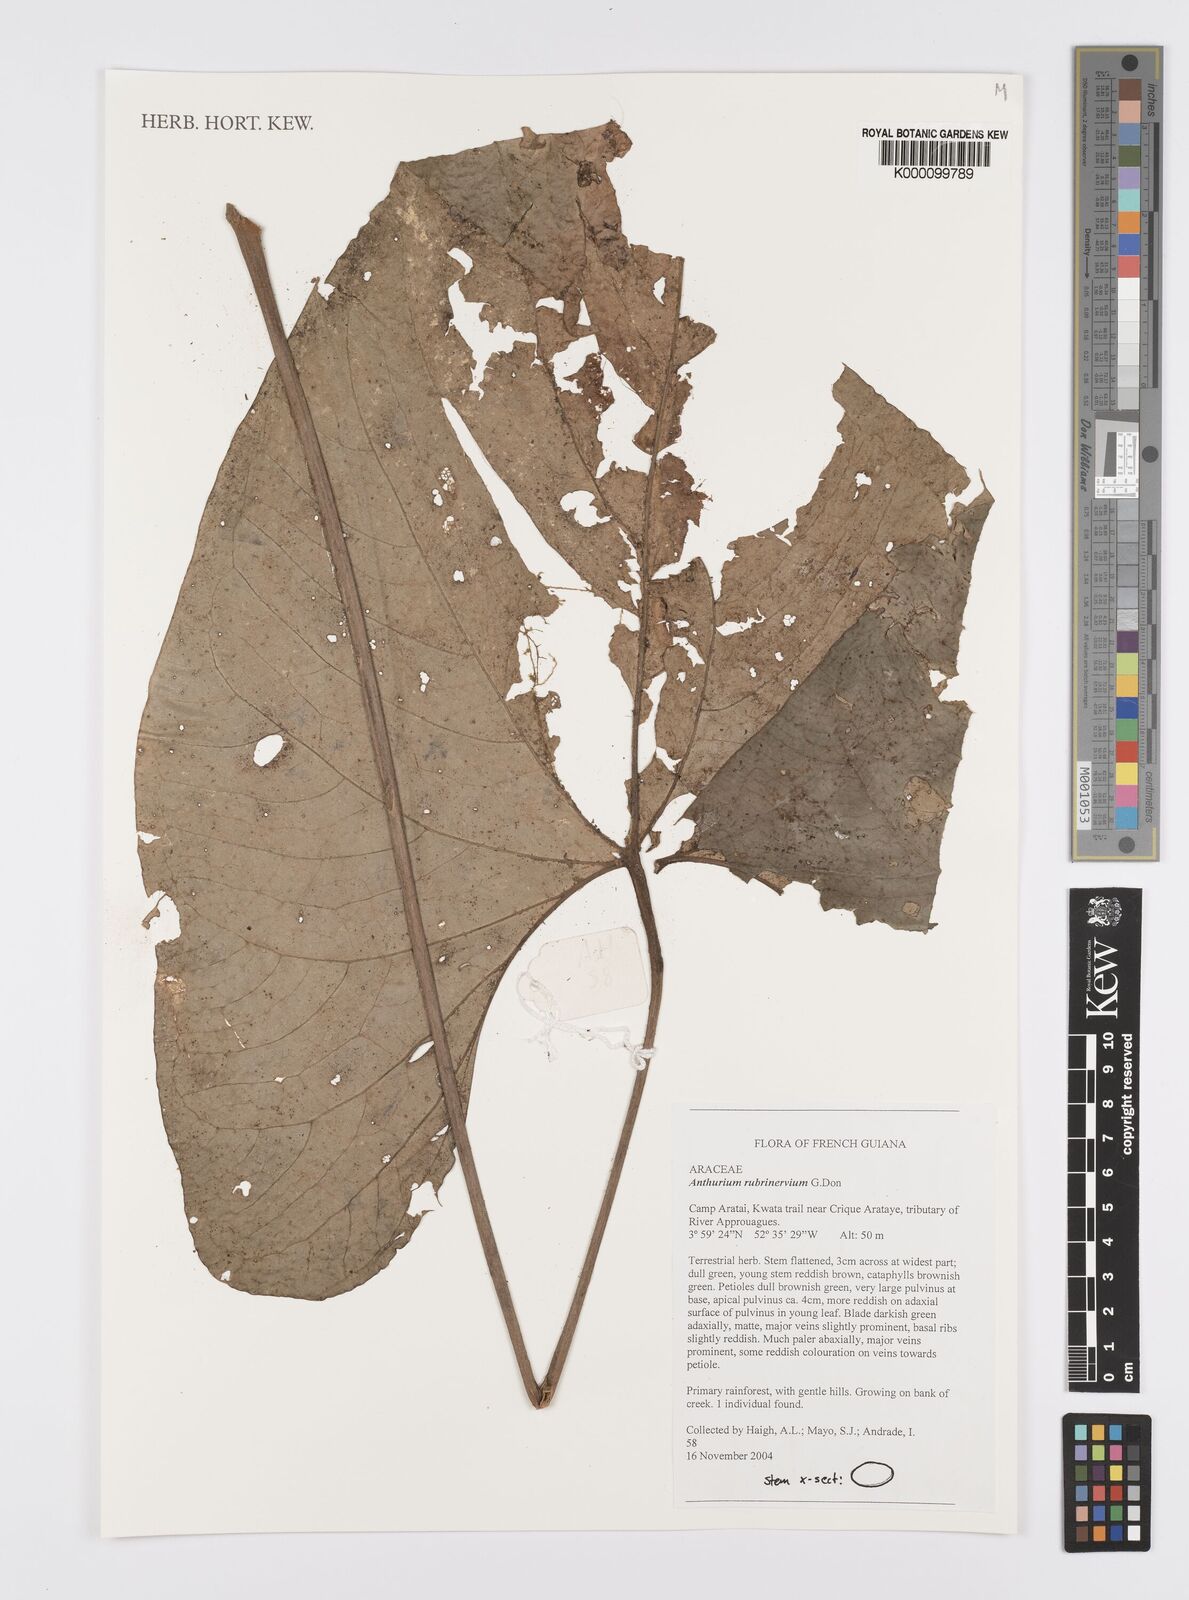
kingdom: Plantae
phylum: Tracheophyta
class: Liliopsida
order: Alismatales
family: Araceae
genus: Anthurium
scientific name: Anthurium sagittatum
